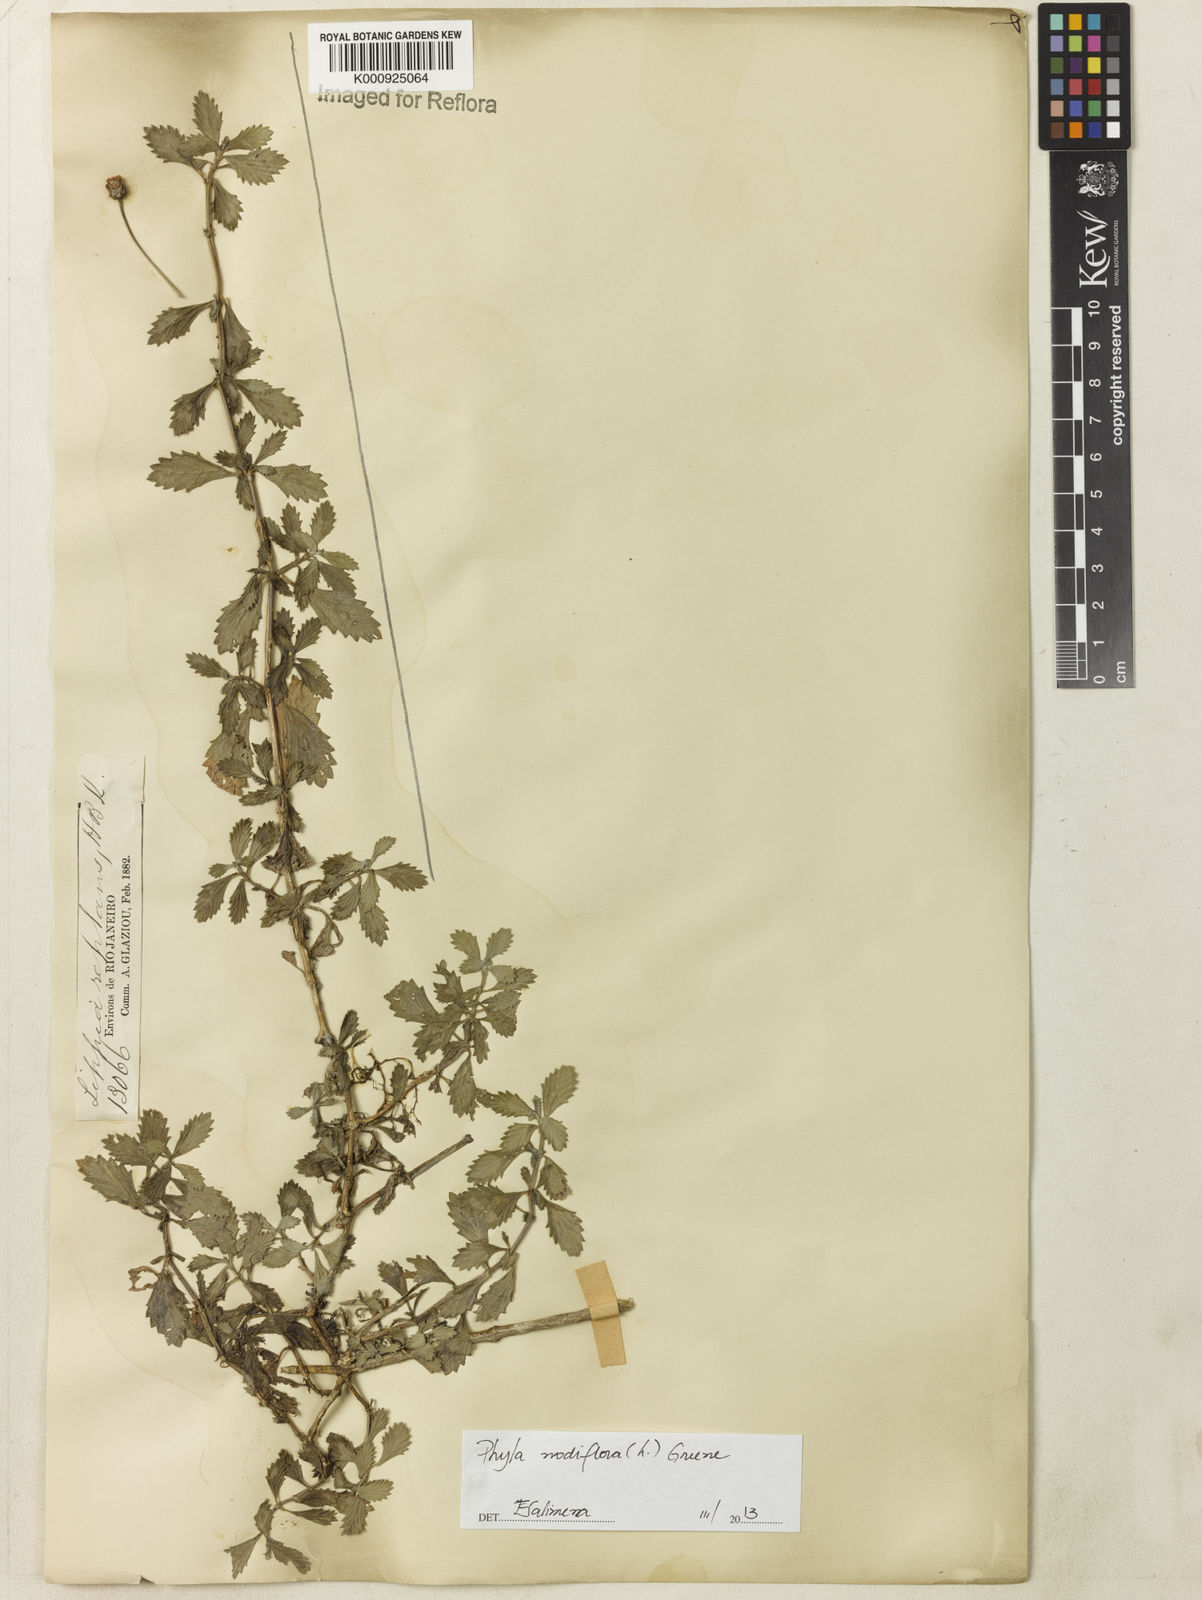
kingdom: Plantae
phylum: Tracheophyta
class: Magnoliopsida
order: Lamiales
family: Verbenaceae
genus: Lippia
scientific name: Lippia
